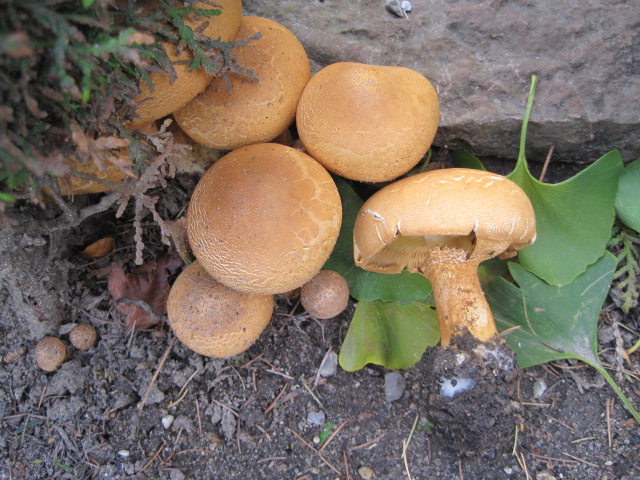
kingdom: Fungi
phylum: Basidiomycota
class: Agaricomycetes
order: Agaricales
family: Tricholomataceae
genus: Phaeolepiota
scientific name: Phaeolepiota aurea
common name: gyldenhat
